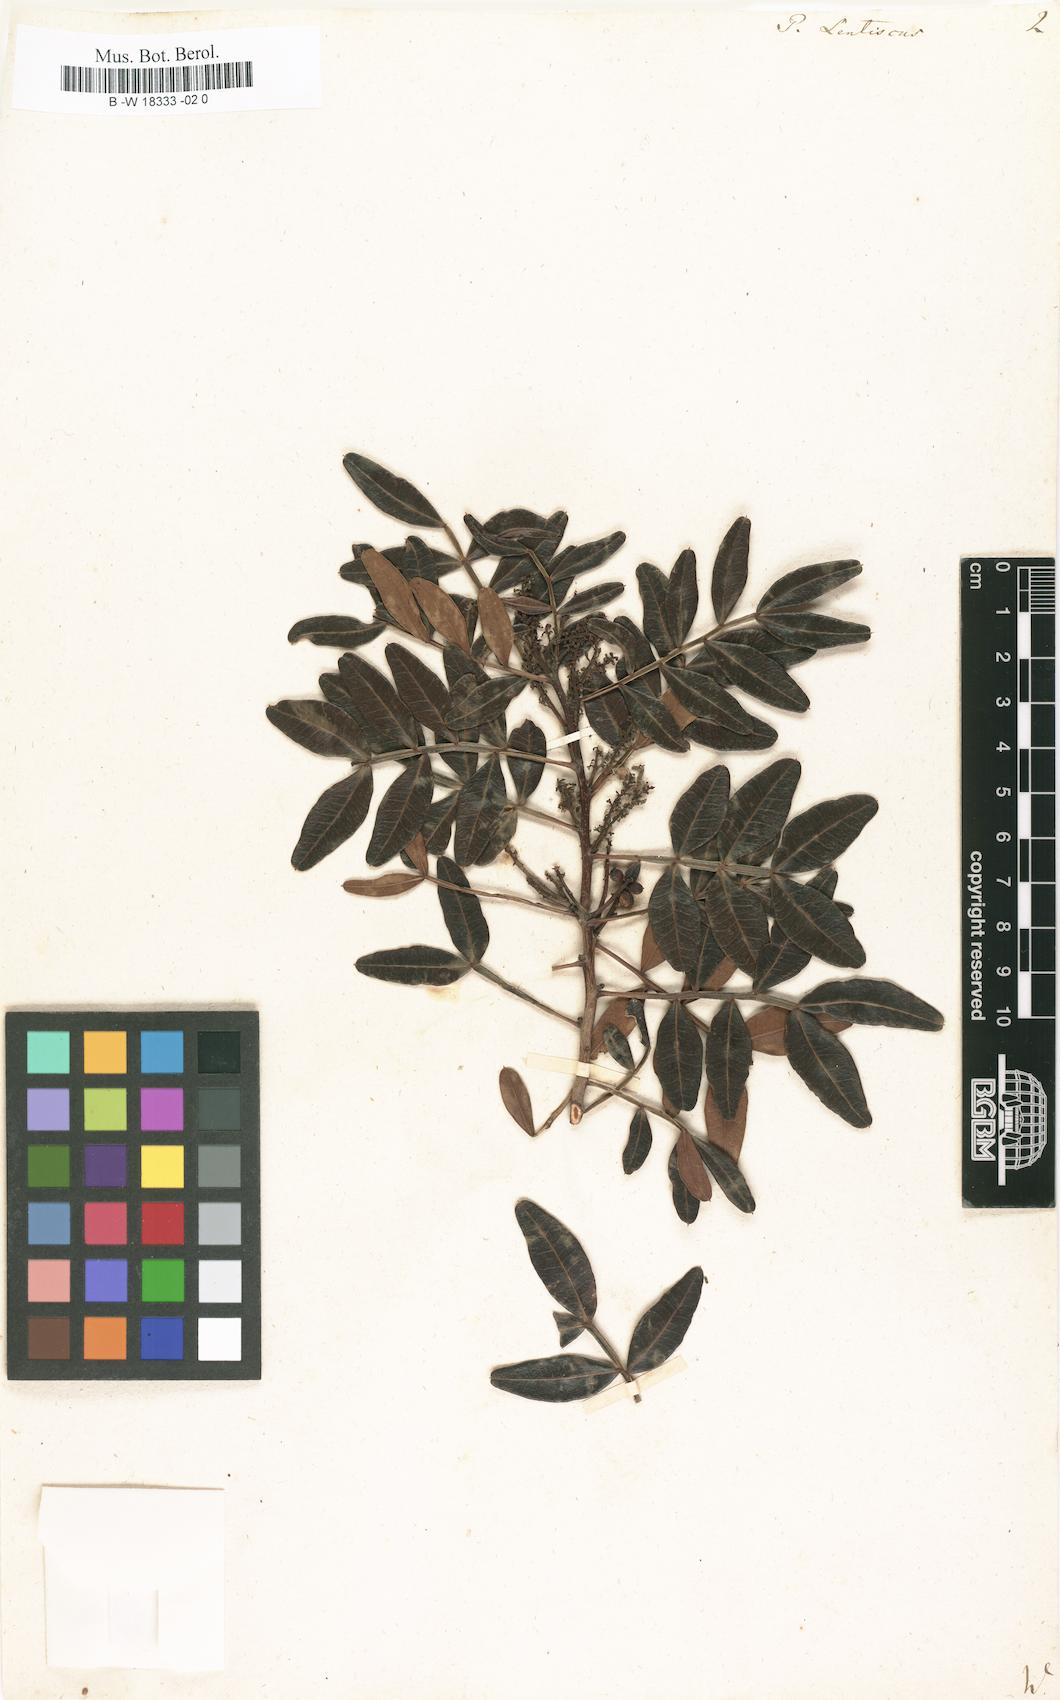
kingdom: Plantae
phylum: Tracheophyta
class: Magnoliopsida
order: Sapindales
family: Anacardiaceae
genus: Pistacia
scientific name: Pistacia lentiscus
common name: Lentisk
